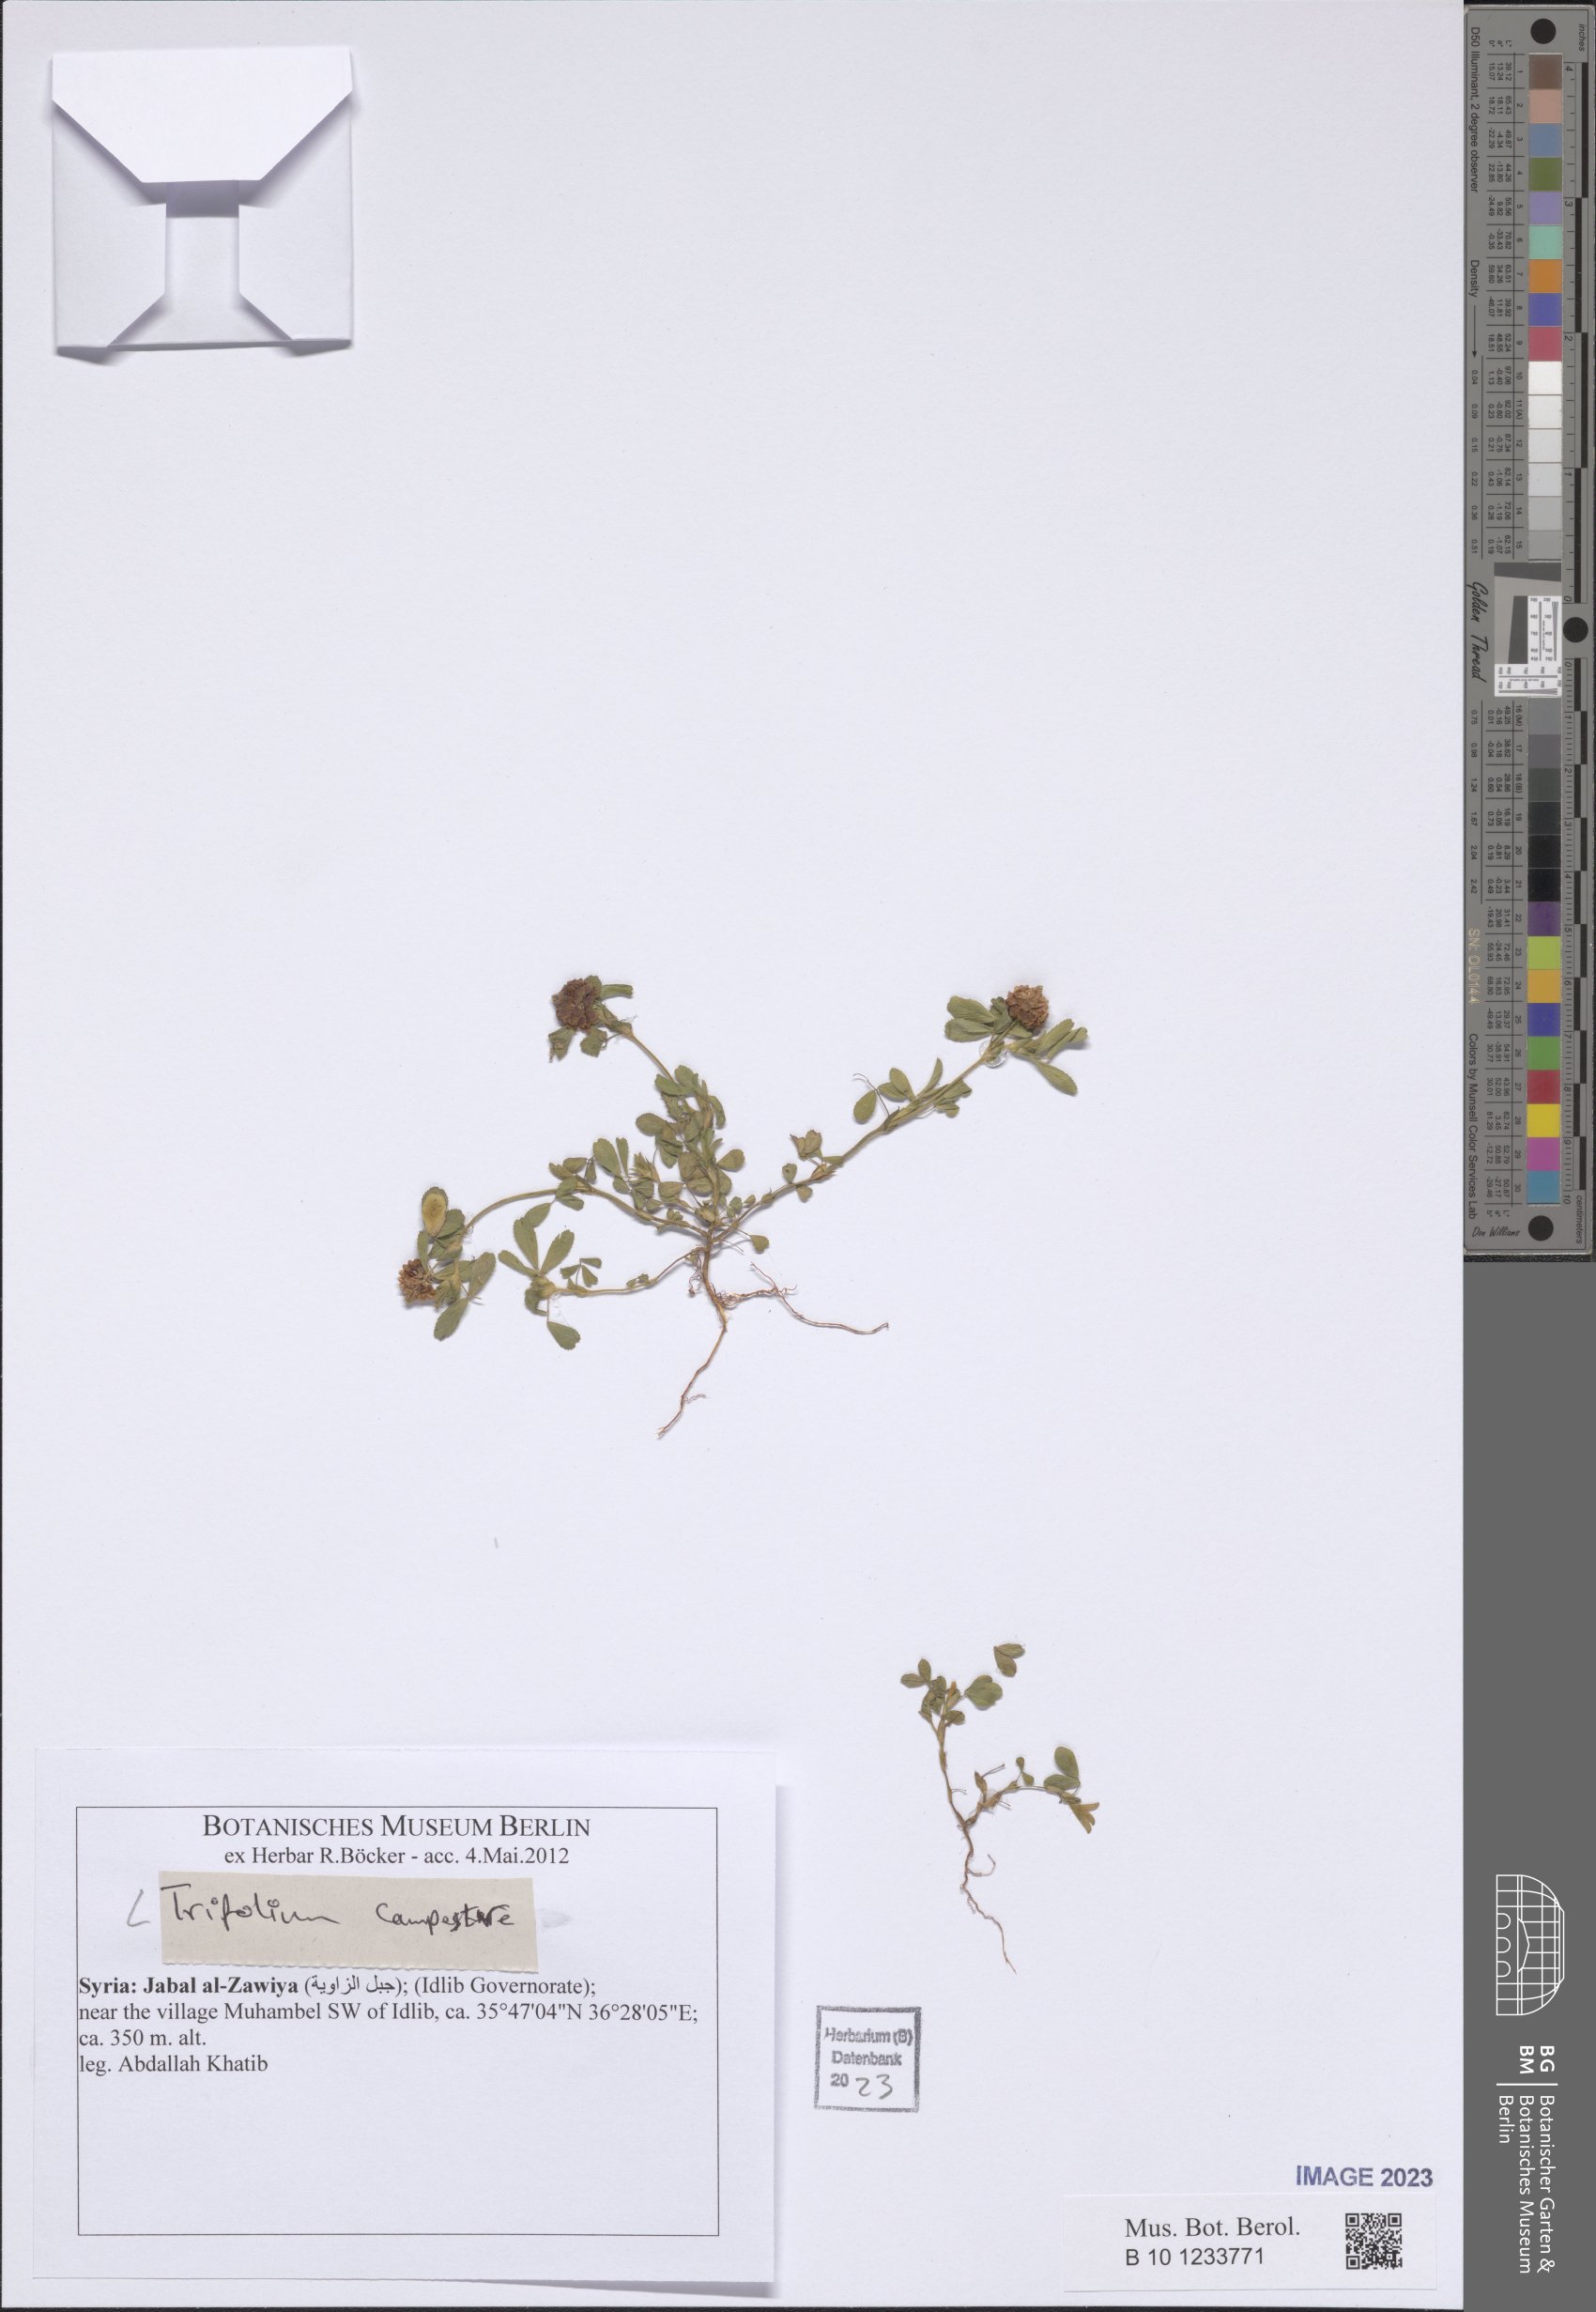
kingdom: Plantae
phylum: Tracheophyta
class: Magnoliopsida
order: Fabales
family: Fabaceae
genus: Trifolium
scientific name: Trifolium campestre
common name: Field clover
